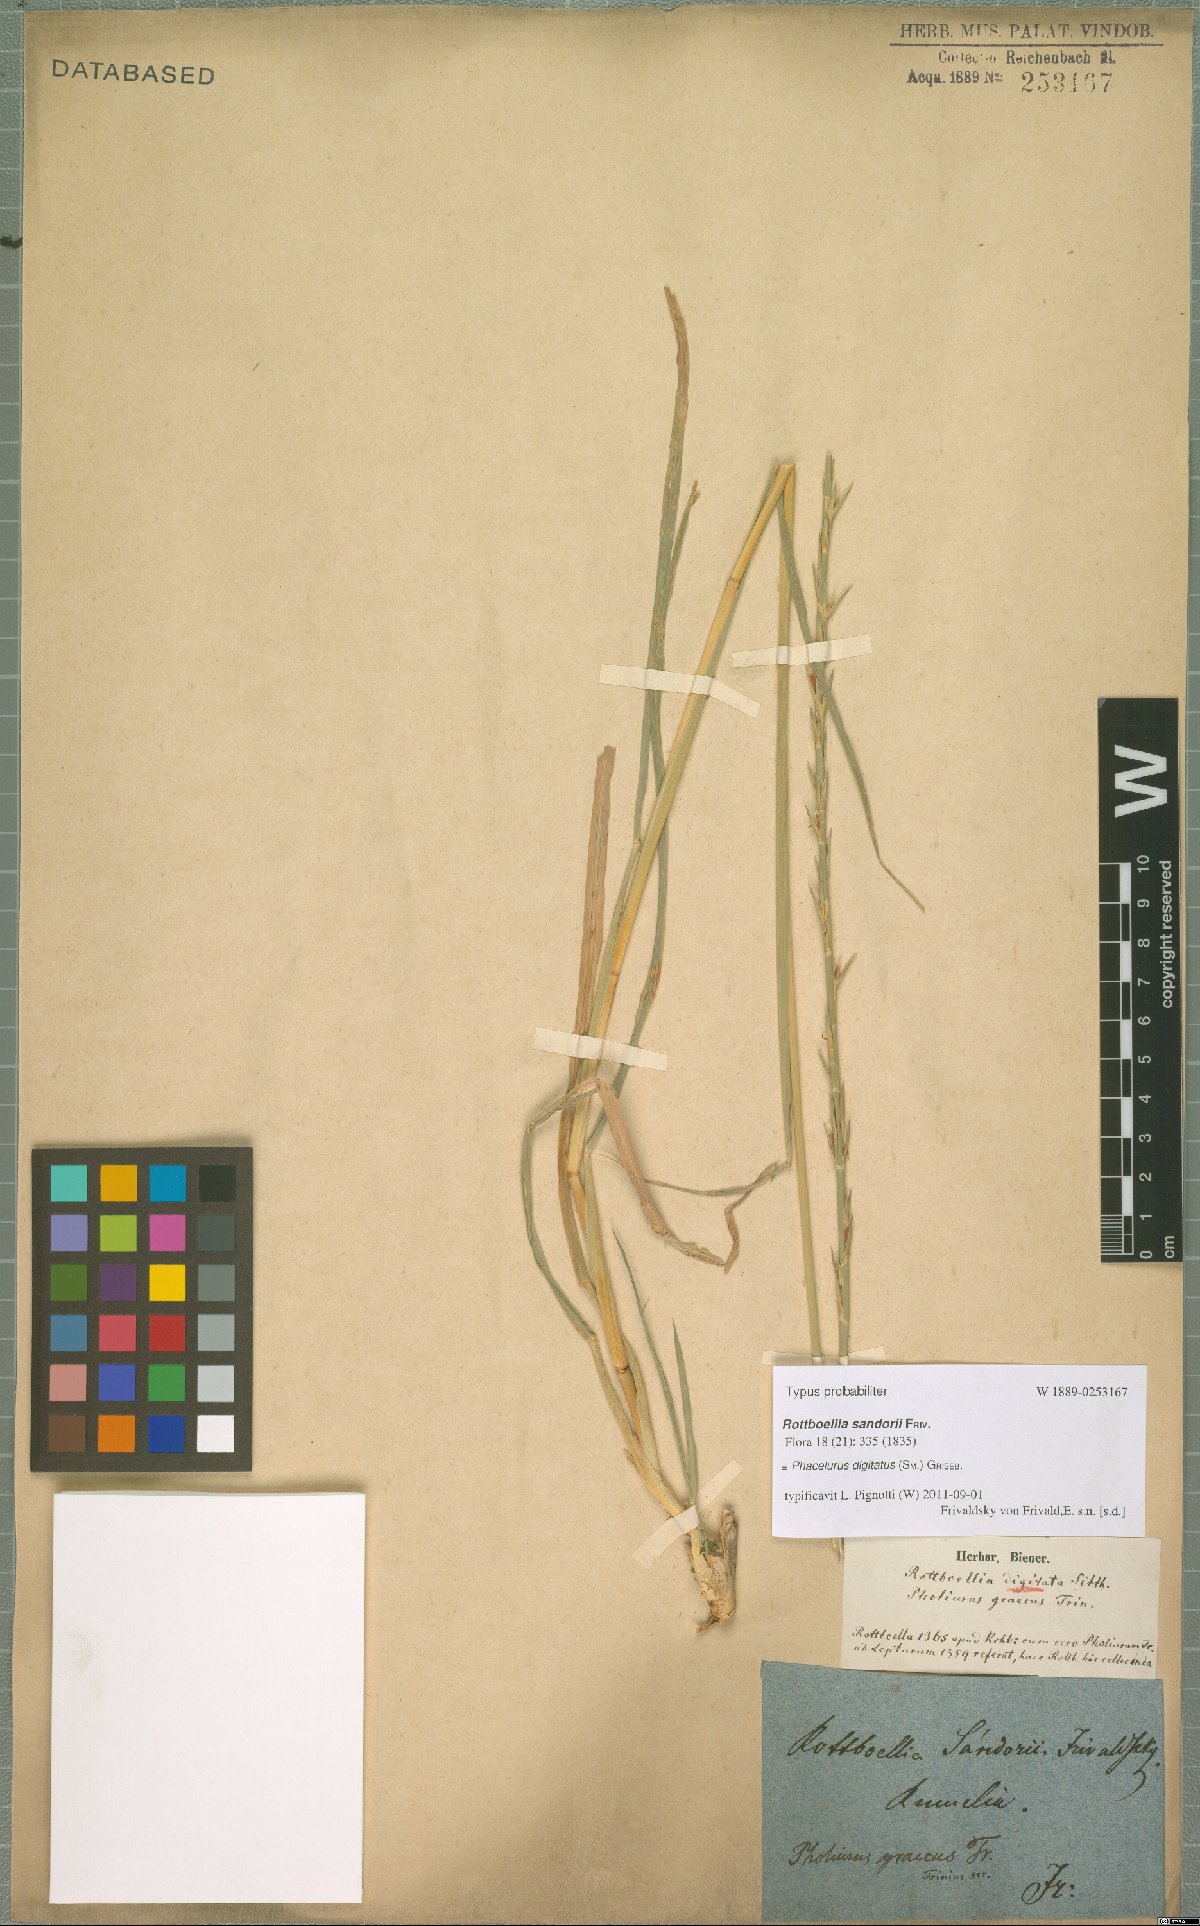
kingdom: Plantae
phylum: Tracheophyta
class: Liliopsida
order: Poales
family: Poaceae
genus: Phacelurus
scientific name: Phacelurus digitatus
